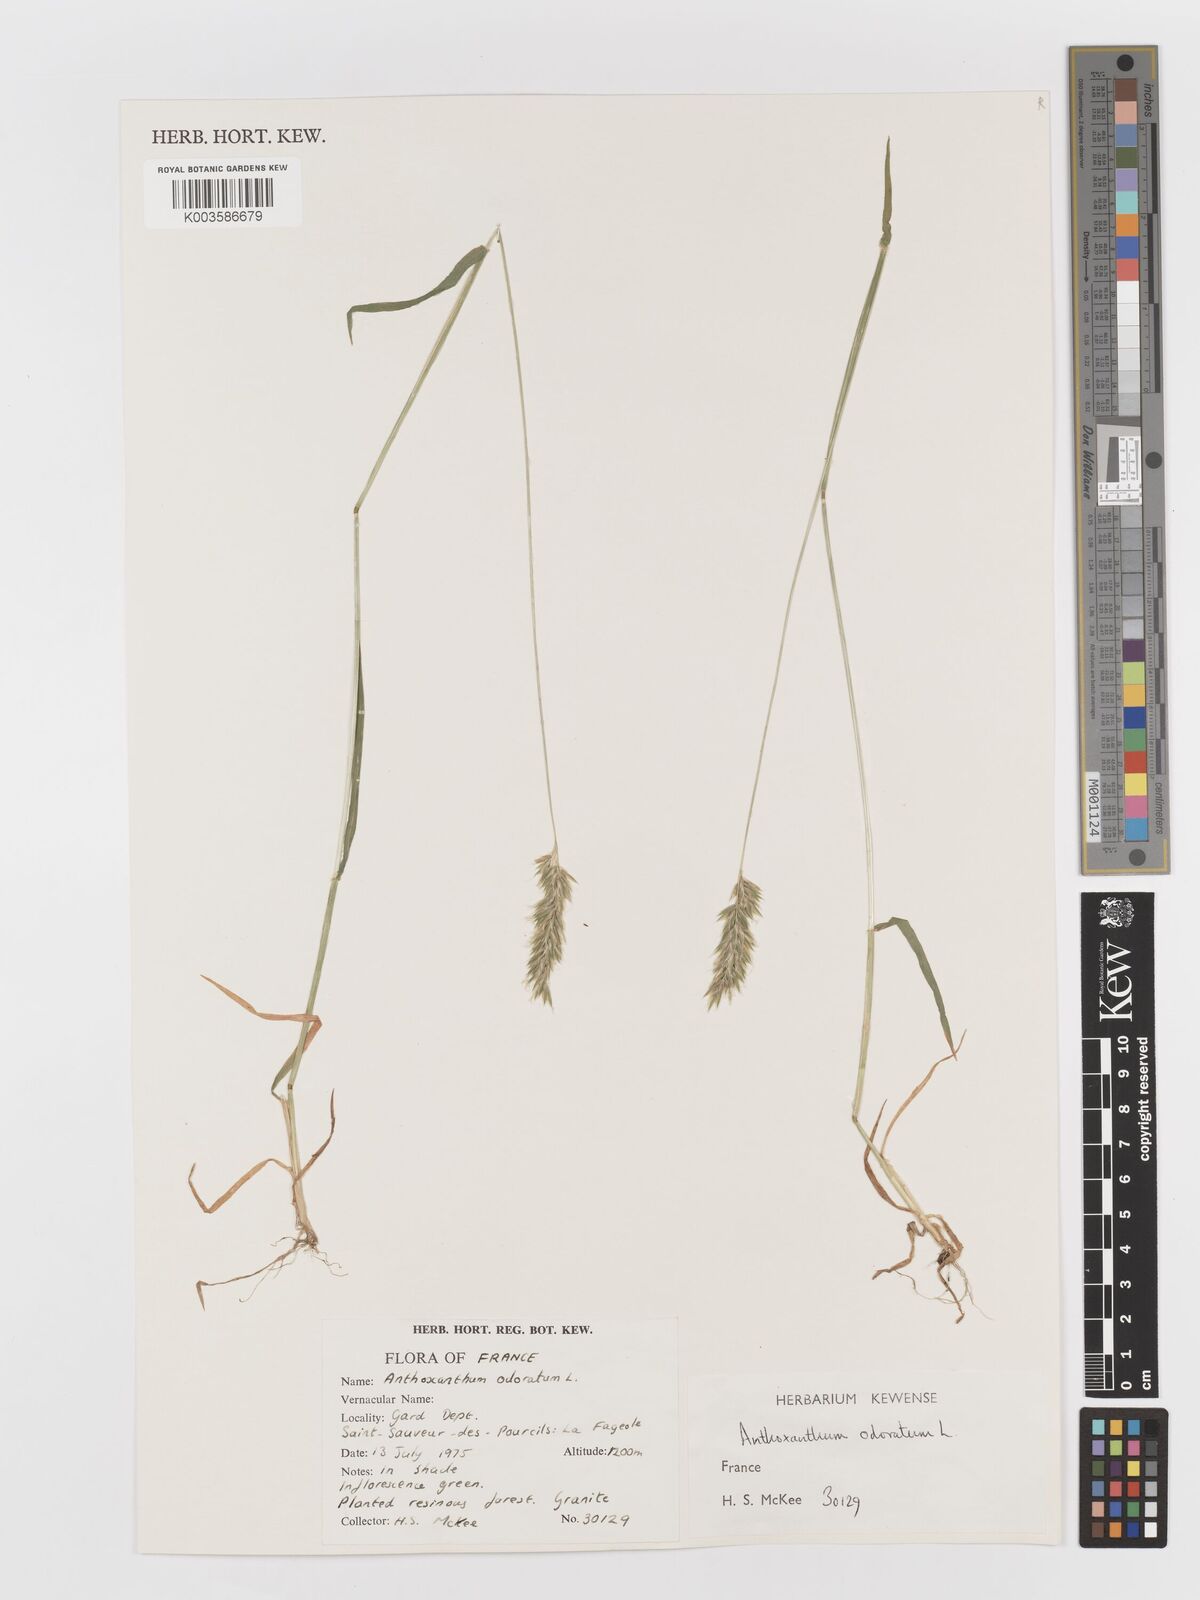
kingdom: Plantae
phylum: Tracheophyta
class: Liliopsida
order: Poales
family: Poaceae
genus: Anthoxanthum
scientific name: Anthoxanthum odoratum
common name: Sweet vernalgrass
